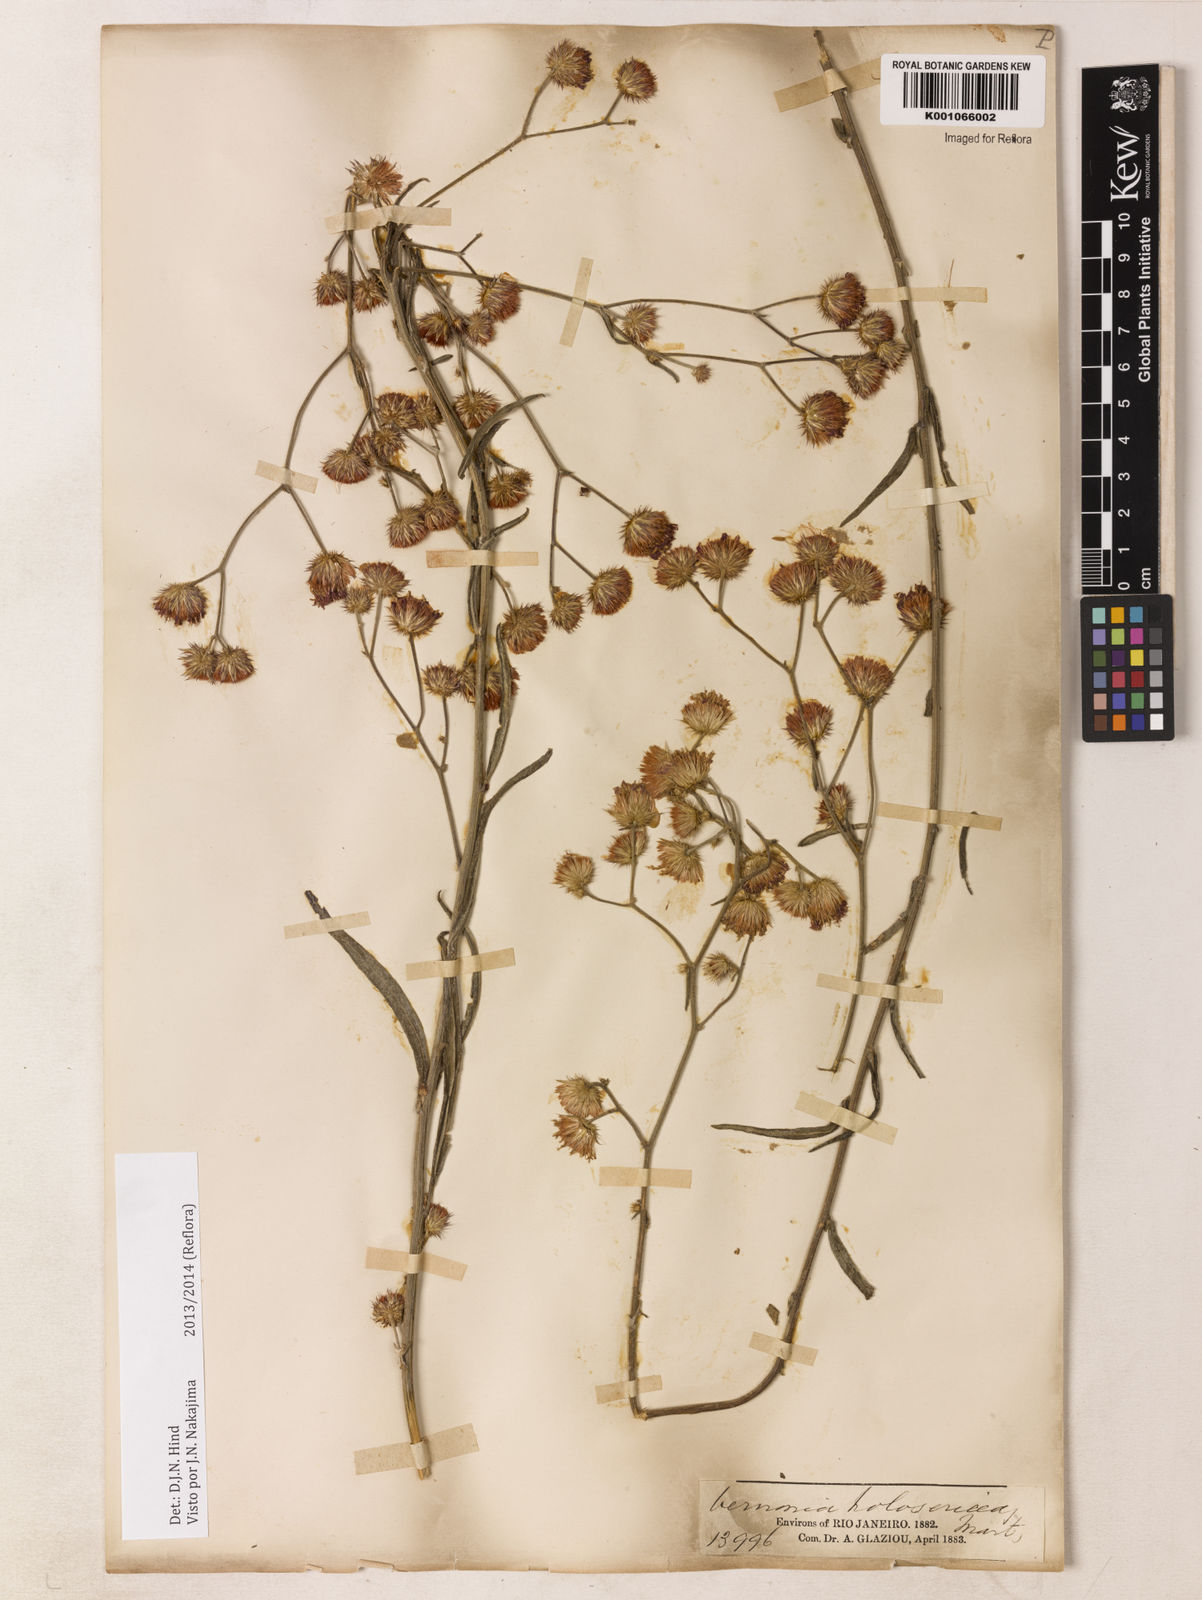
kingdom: Plantae
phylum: Tracheophyta
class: Magnoliopsida
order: Asterales
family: Asteraceae
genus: Echinocoryne
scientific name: Echinocoryne holosericea
